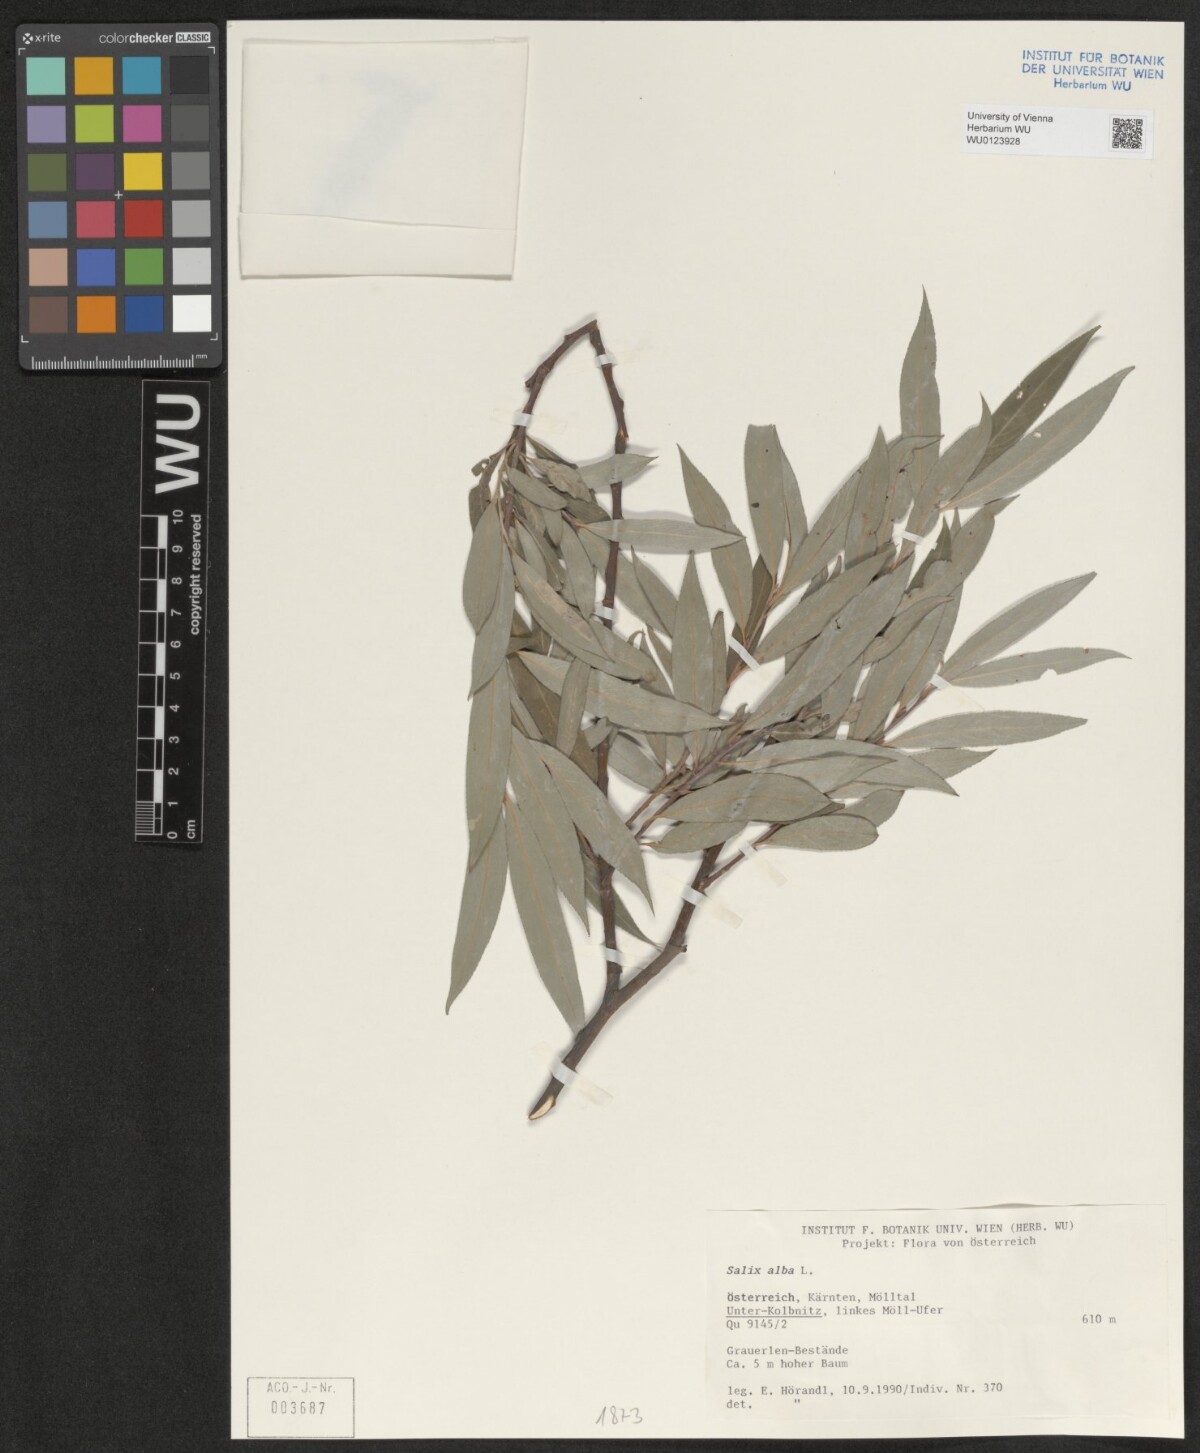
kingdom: Plantae
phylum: Tracheophyta
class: Magnoliopsida
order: Malpighiales
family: Salicaceae
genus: Salix
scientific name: Salix alba
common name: White willow
